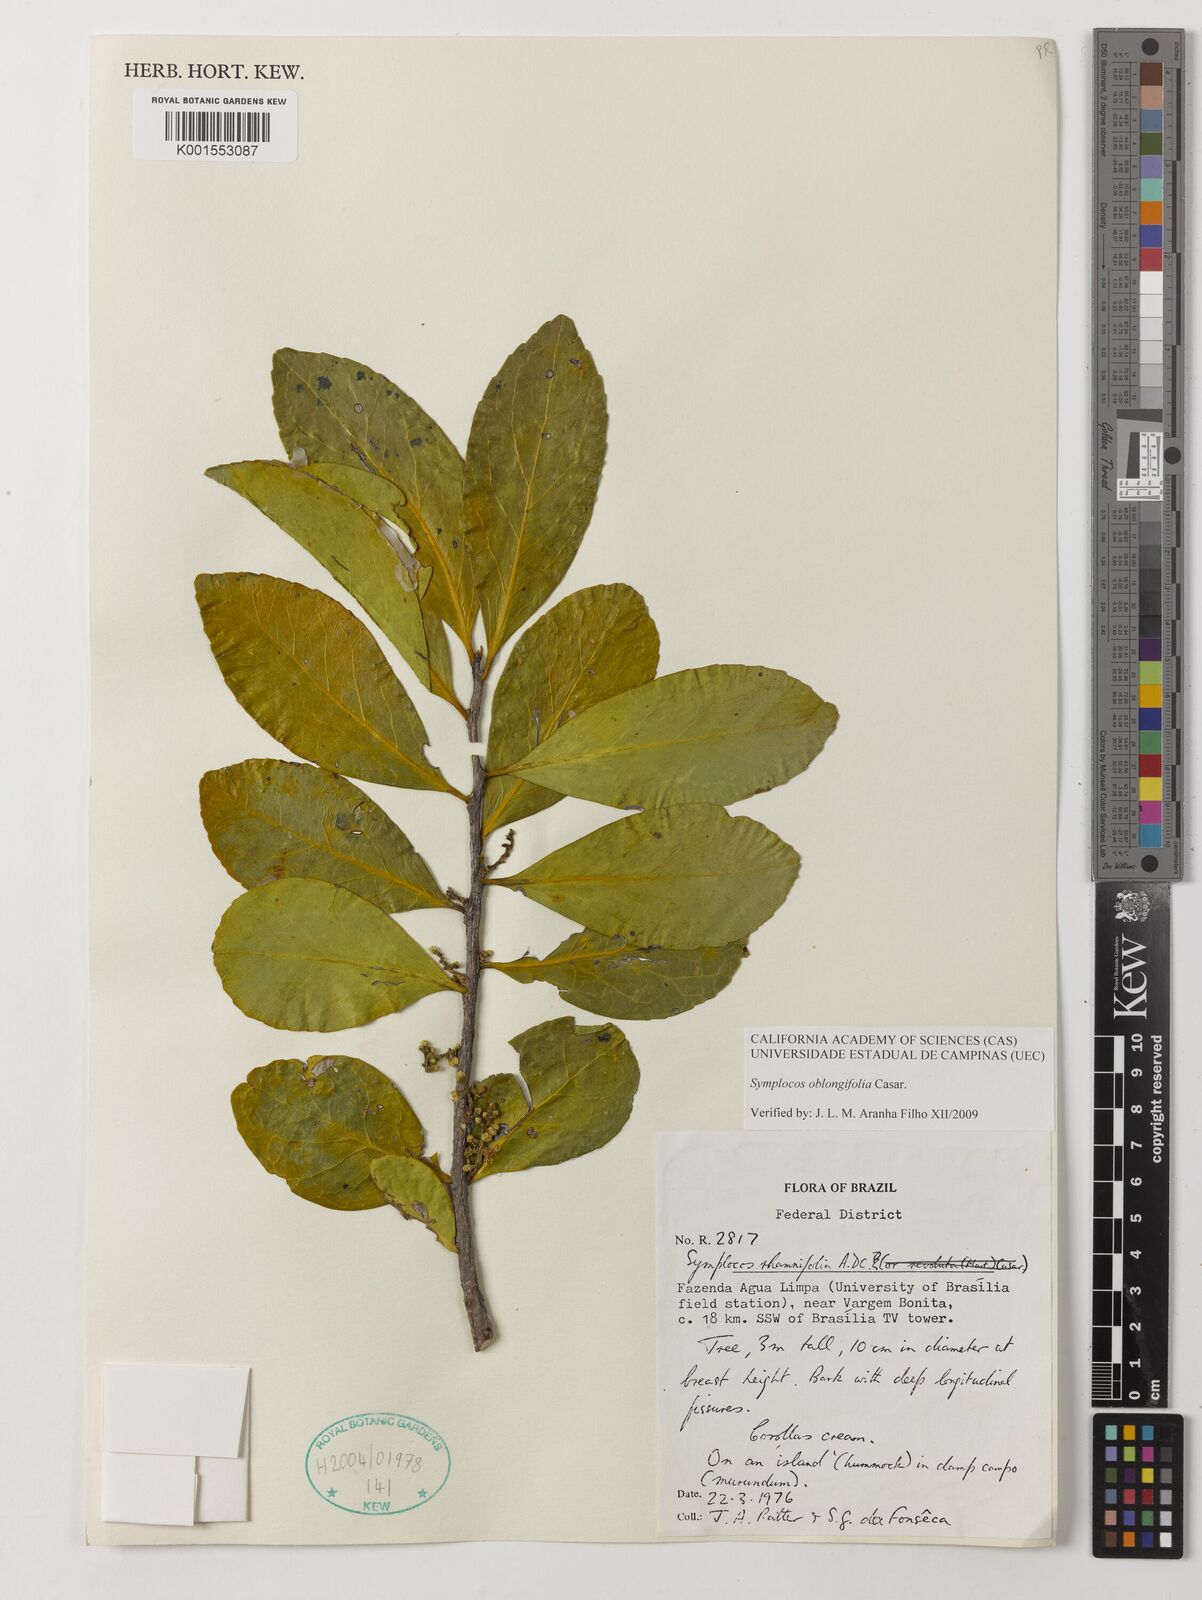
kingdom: Plantae
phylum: Tracheophyta
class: Magnoliopsida
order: Ericales
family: Symplocaceae
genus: Symplocos
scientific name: Symplocos oblongifolia
